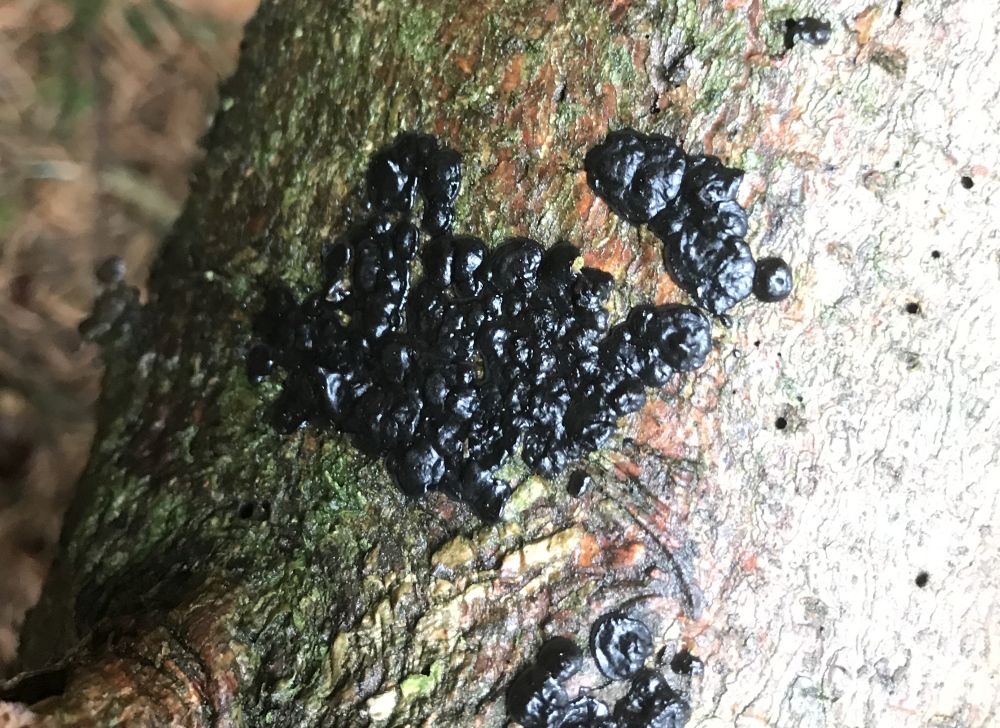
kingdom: Fungi
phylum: Basidiomycota
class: Agaricomycetes
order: Auriculariales
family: Auriculariaceae
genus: Exidia
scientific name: Exidia pithya
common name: gran-bævretop
